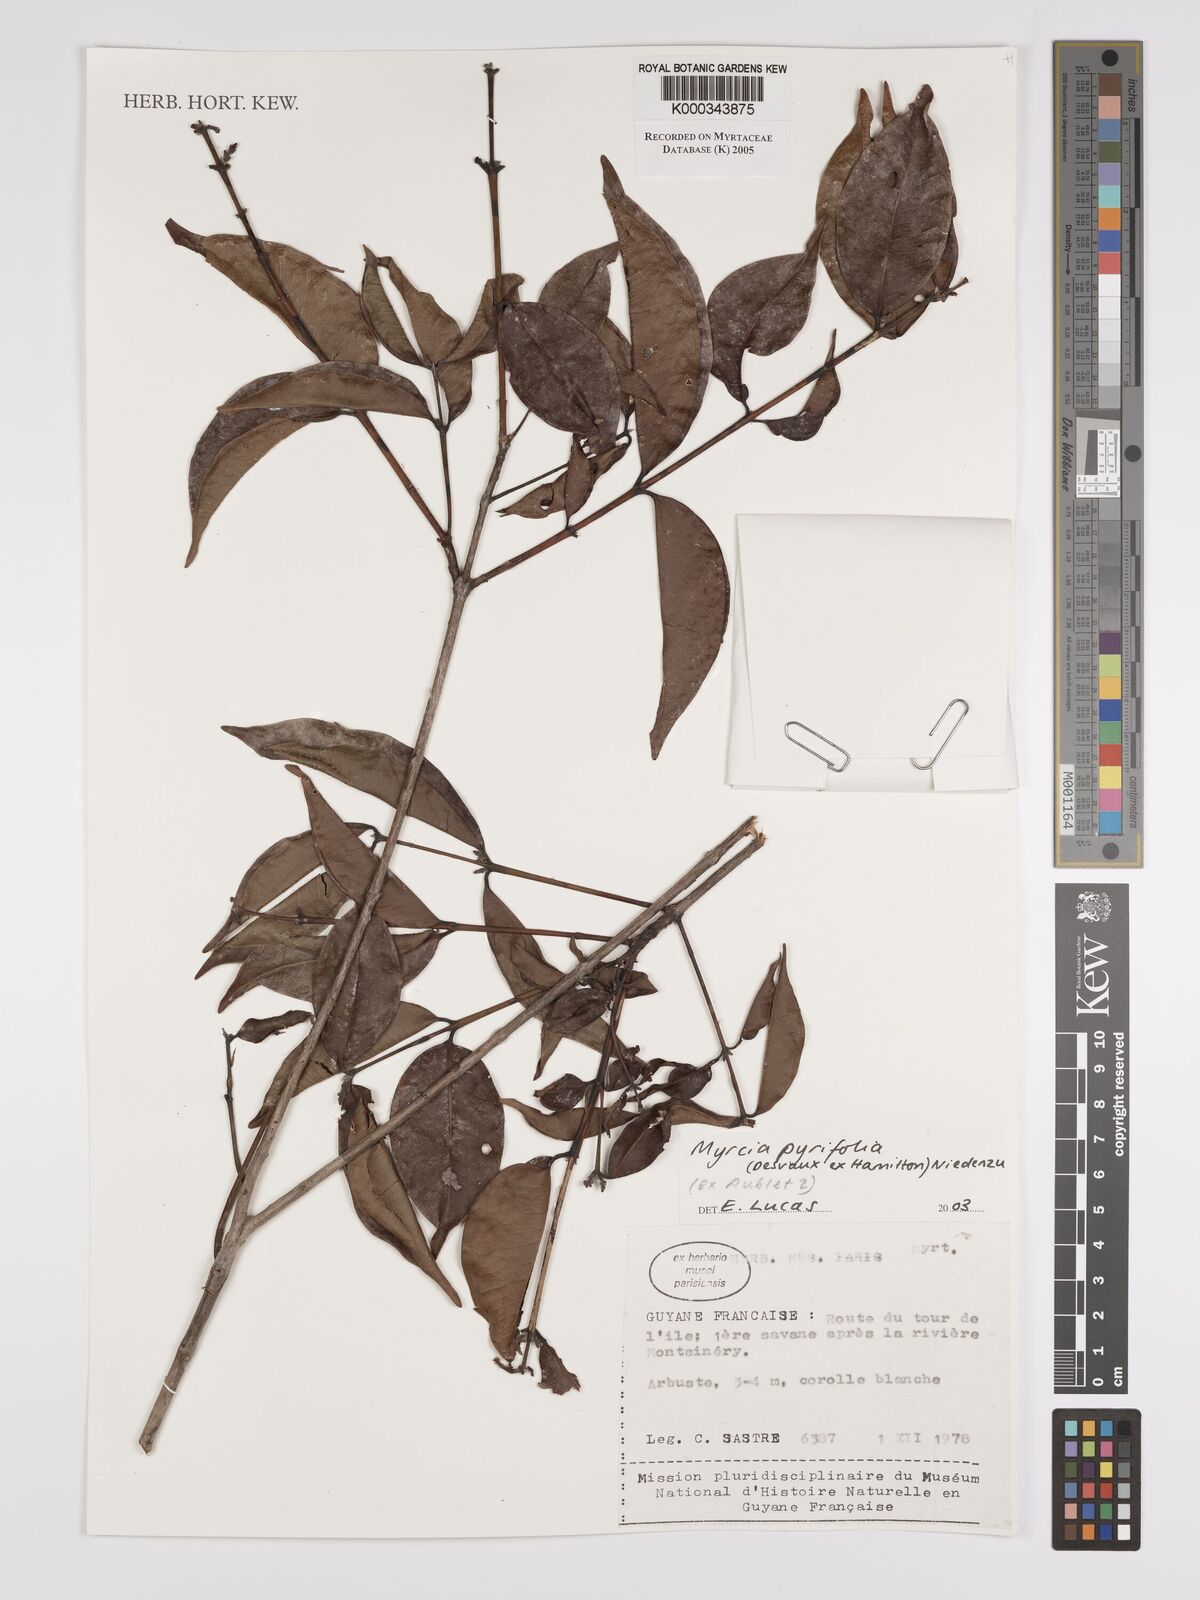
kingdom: Plantae
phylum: Tracheophyta
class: Magnoliopsida
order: Myrtales
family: Myrtaceae
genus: Myrcia
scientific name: Myrcia pyrifolia
